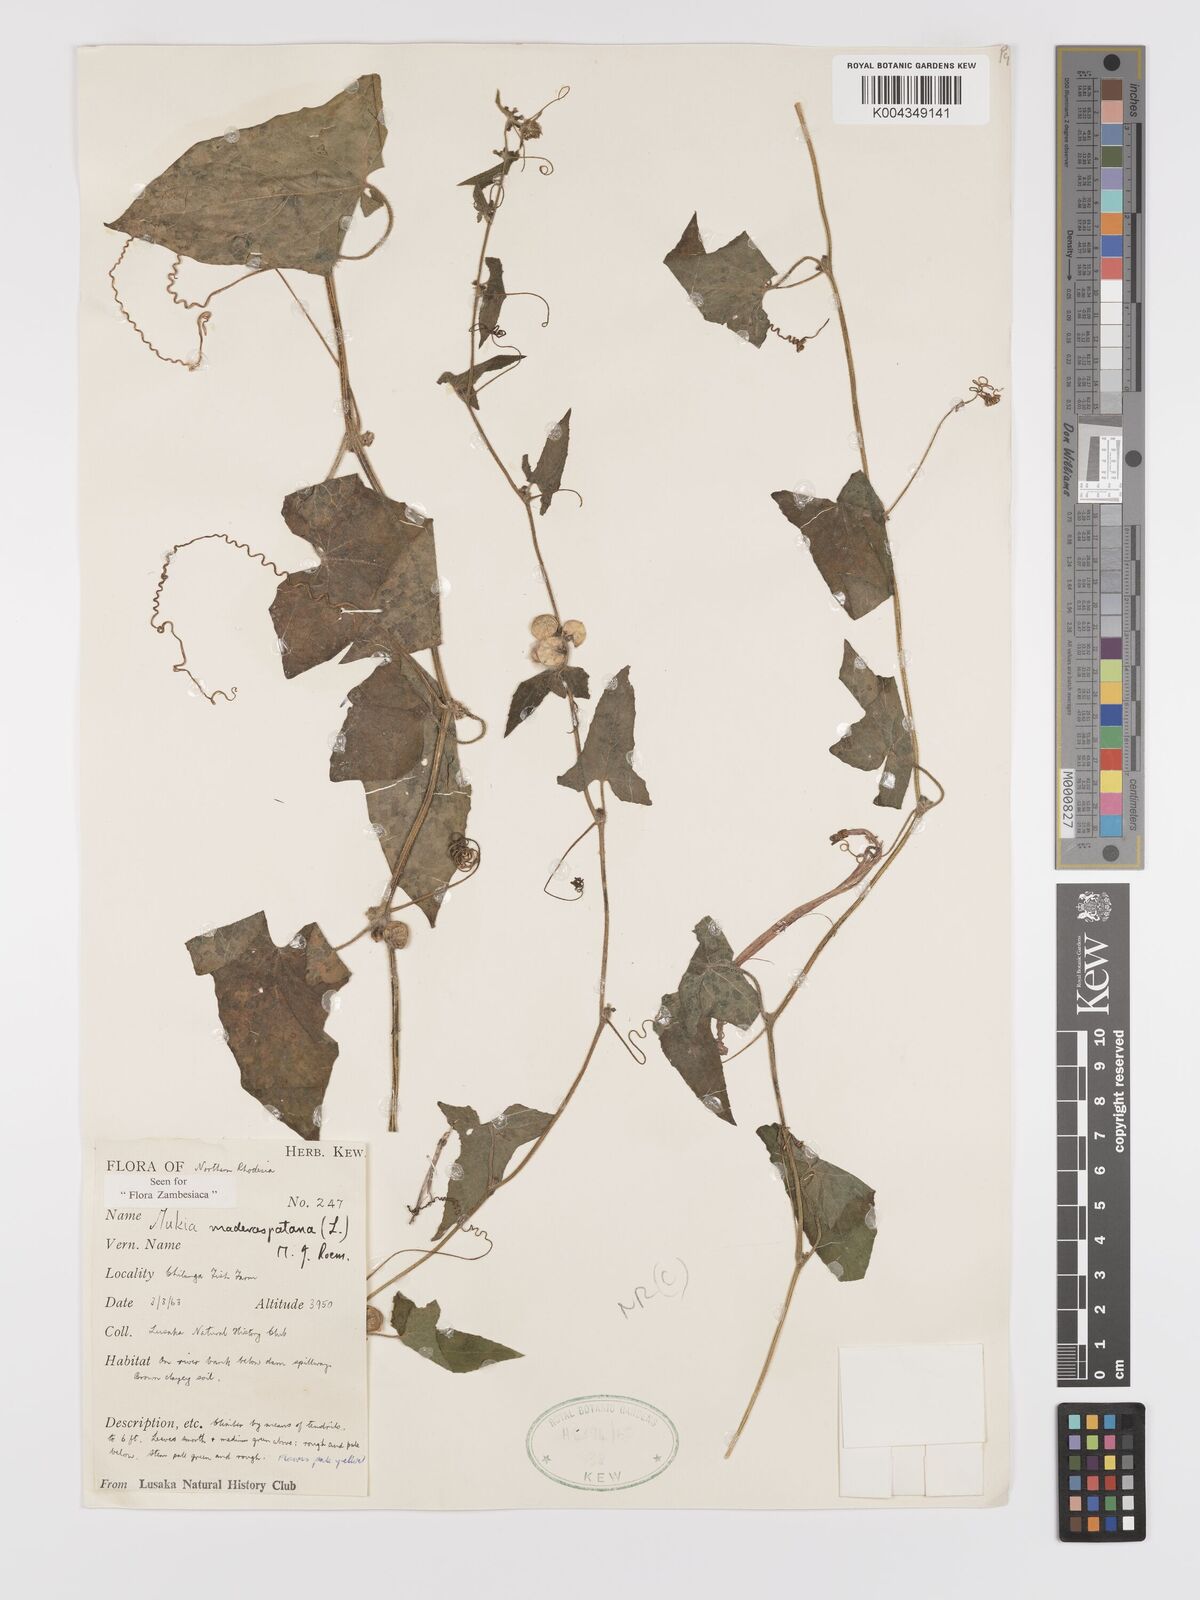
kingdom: Plantae
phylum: Tracheophyta
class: Magnoliopsida
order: Cucurbitales
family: Cucurbitaceae
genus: Cucumis
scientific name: Cucumis maderaspatanus
